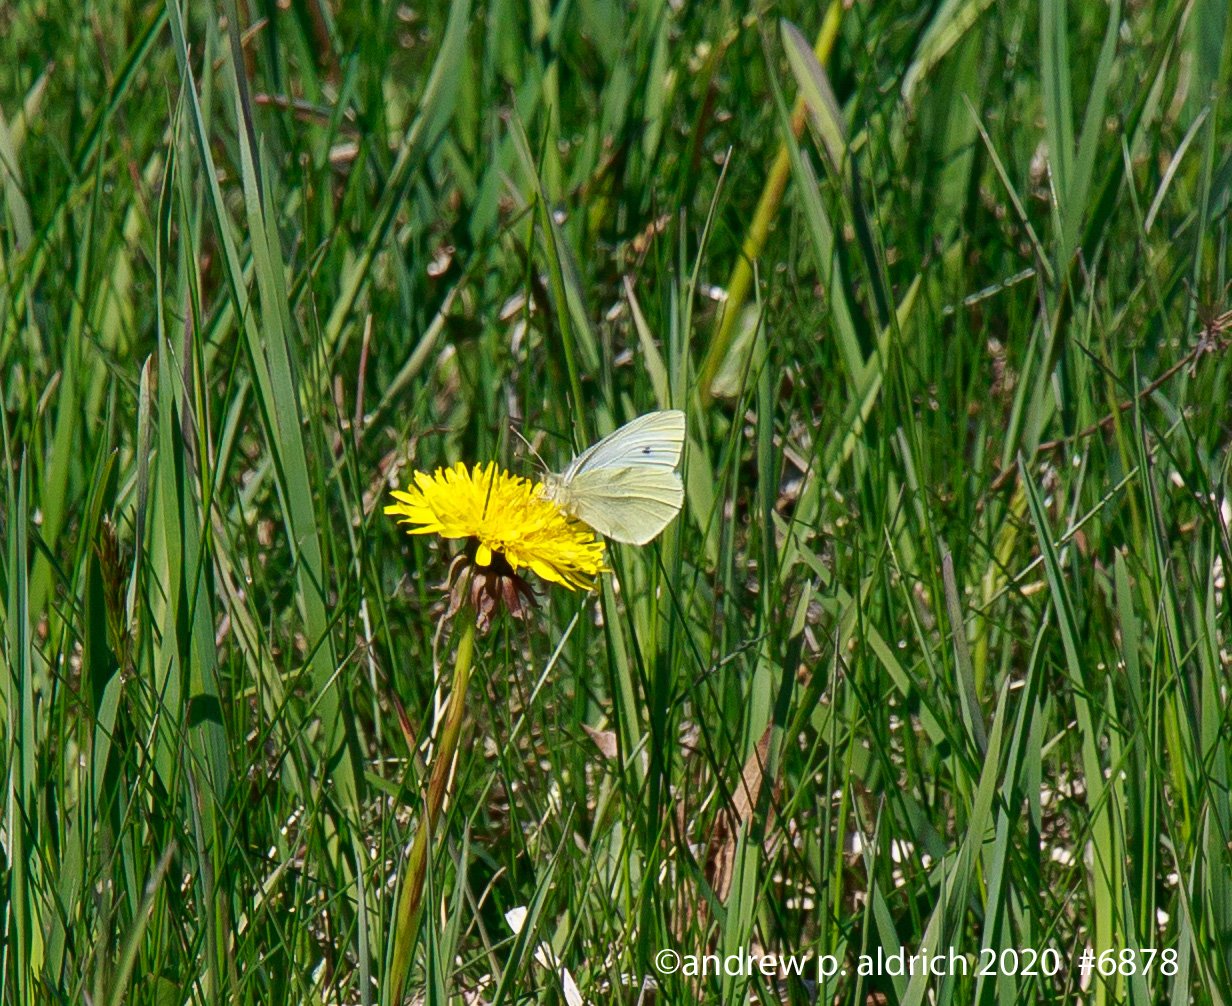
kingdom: Animalia
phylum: Arthropoda
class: Insecta
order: Lepidoptera
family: Pieridae
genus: Pieris
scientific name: Pieris rapae
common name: Cabbage White
